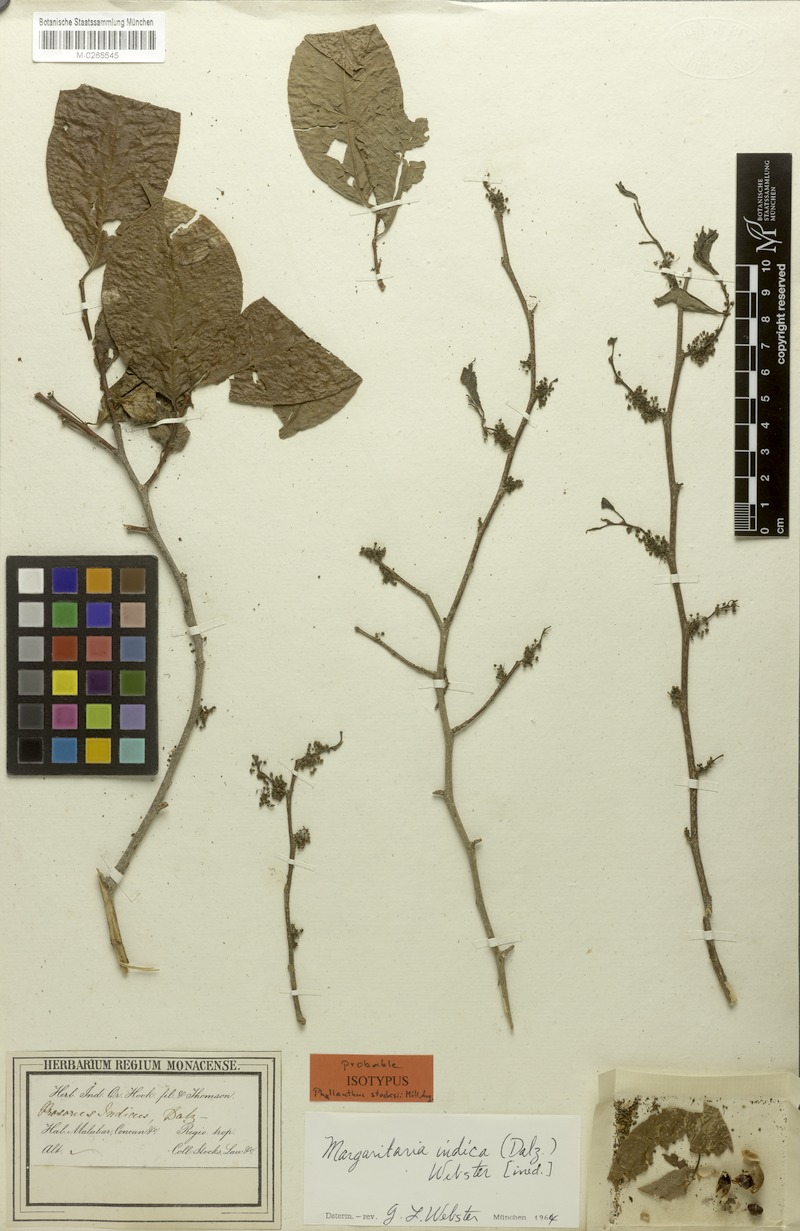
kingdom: Plantae
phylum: Tracheophyta
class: Magnoliopsida
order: Malpighiales
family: Phyllanthaceae
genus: Margaritaria
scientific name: Margaritaria indica
